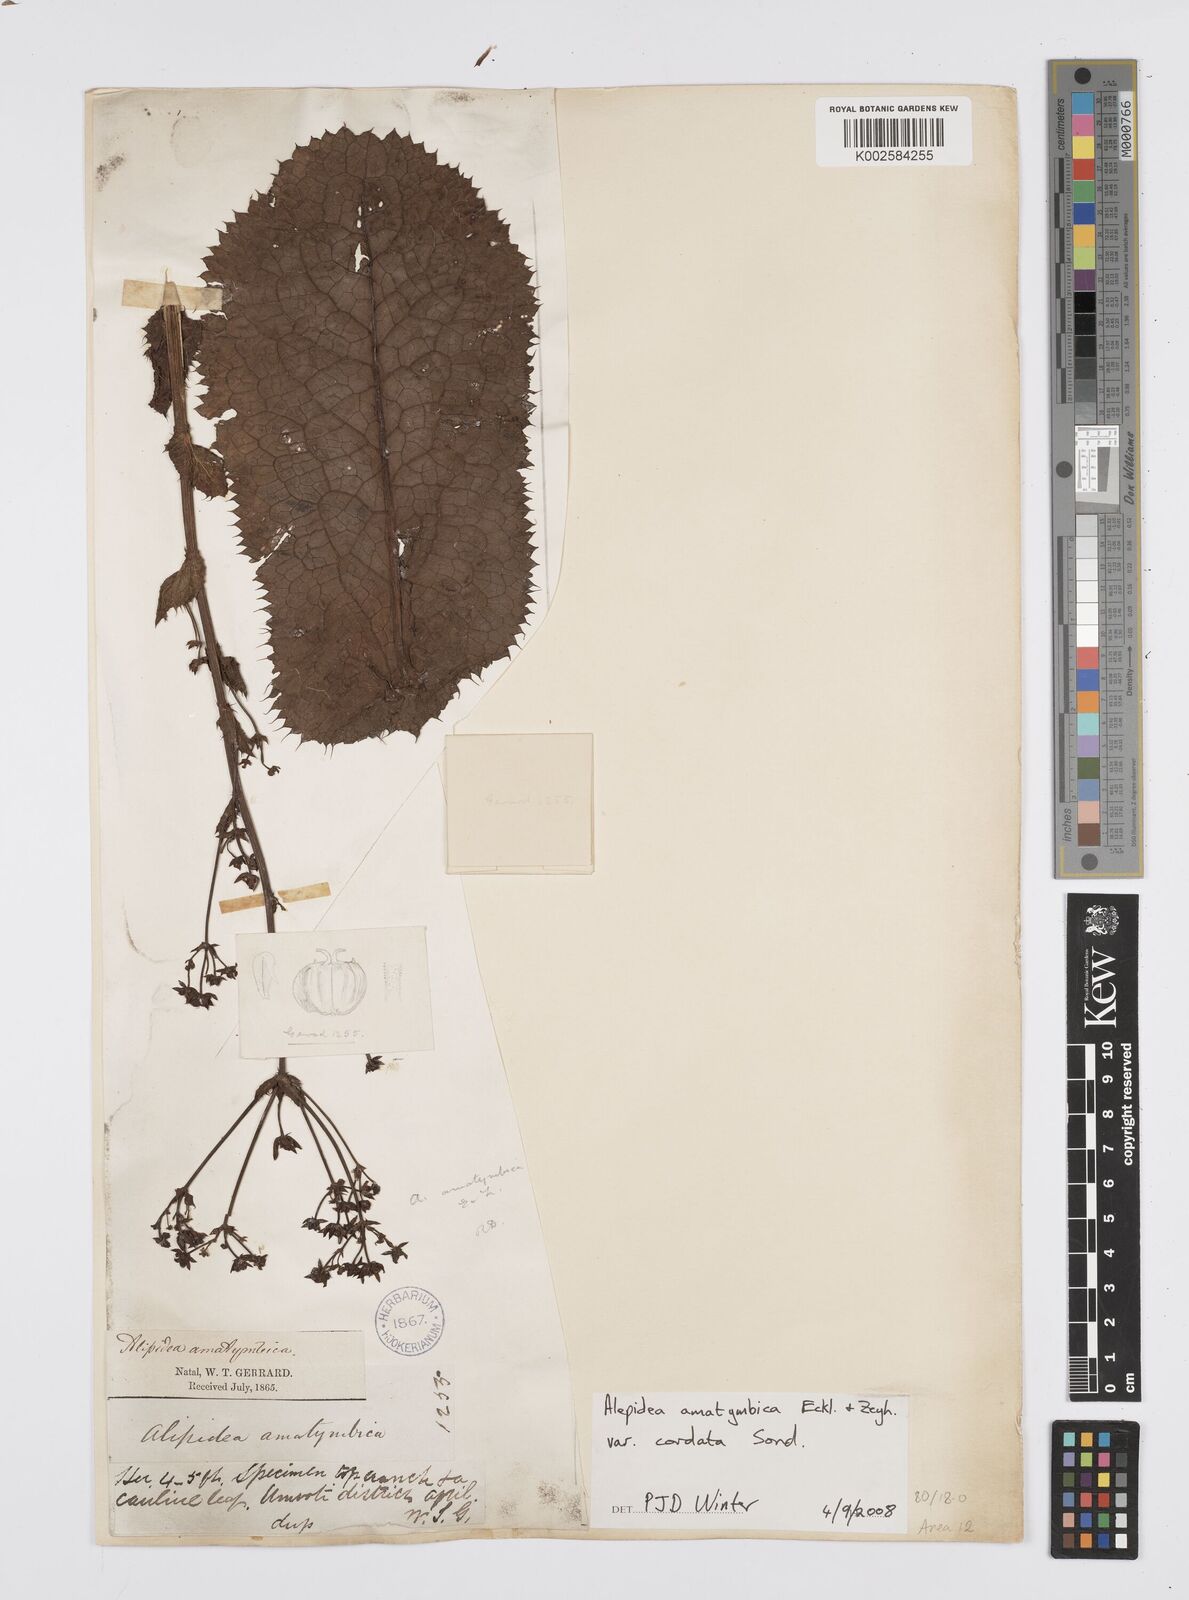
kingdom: Plantae
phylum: Tracheophyta
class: Magnoliopsida
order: Apiales
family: Apiaceae
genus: Alepidea
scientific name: Alepidea cordifolia
